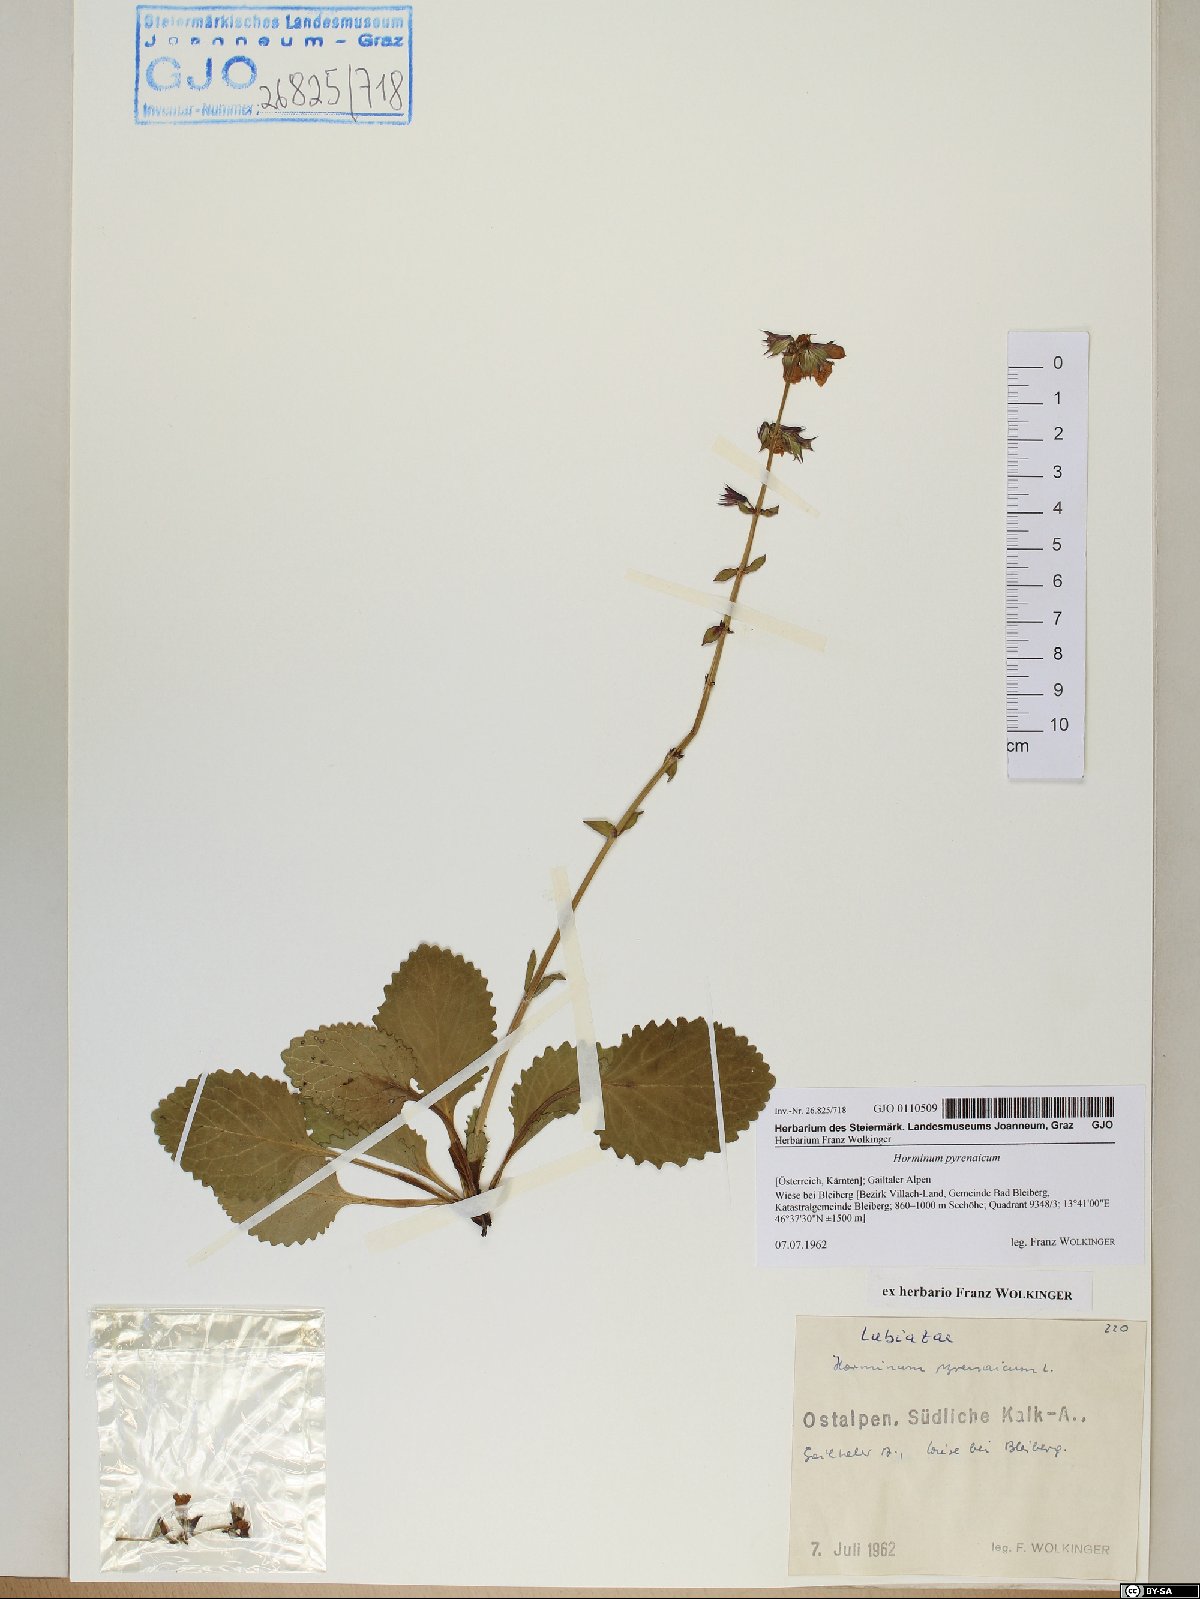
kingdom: Plantae
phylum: Tracheophyta
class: Magnoliopsida
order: Lamiales
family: Lamiaceae
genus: Horminum
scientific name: Horminum pyrenaicum
